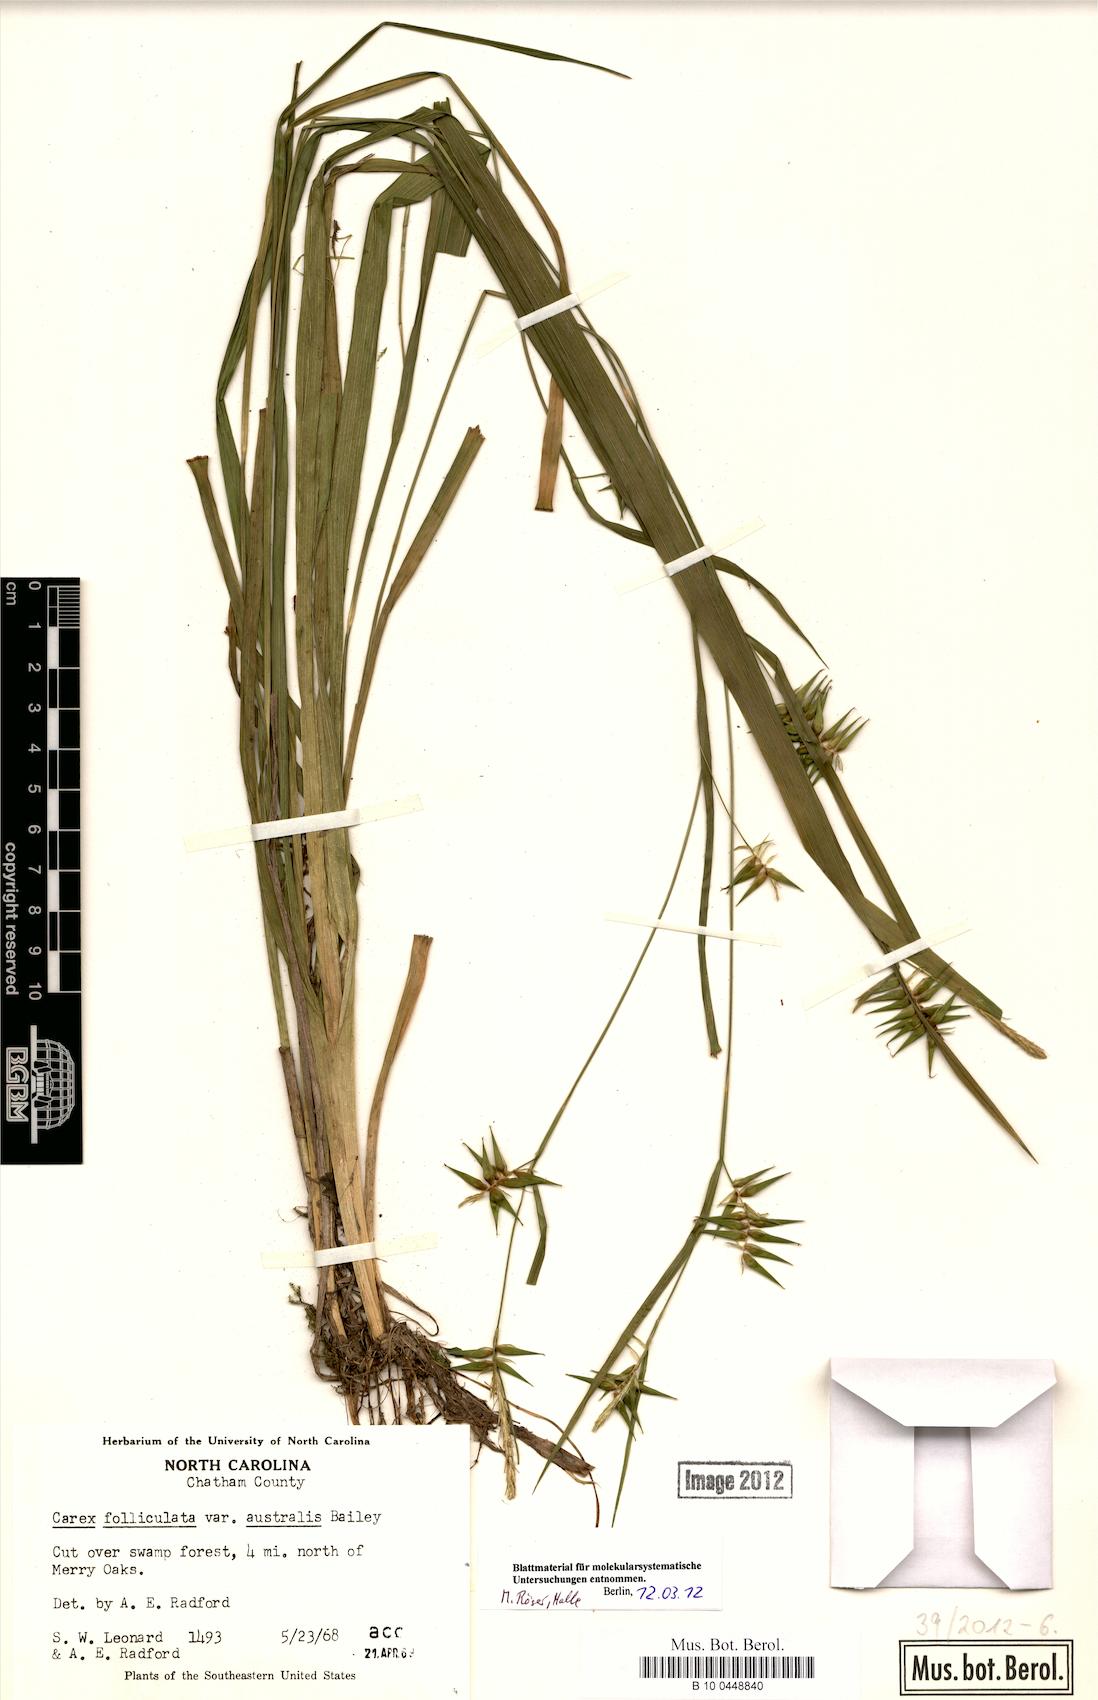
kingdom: Plantae
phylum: Tracheophyta
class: Liliopsida
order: Poales
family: Cyperaceae
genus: Carex
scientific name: Carex lonchocarpa
